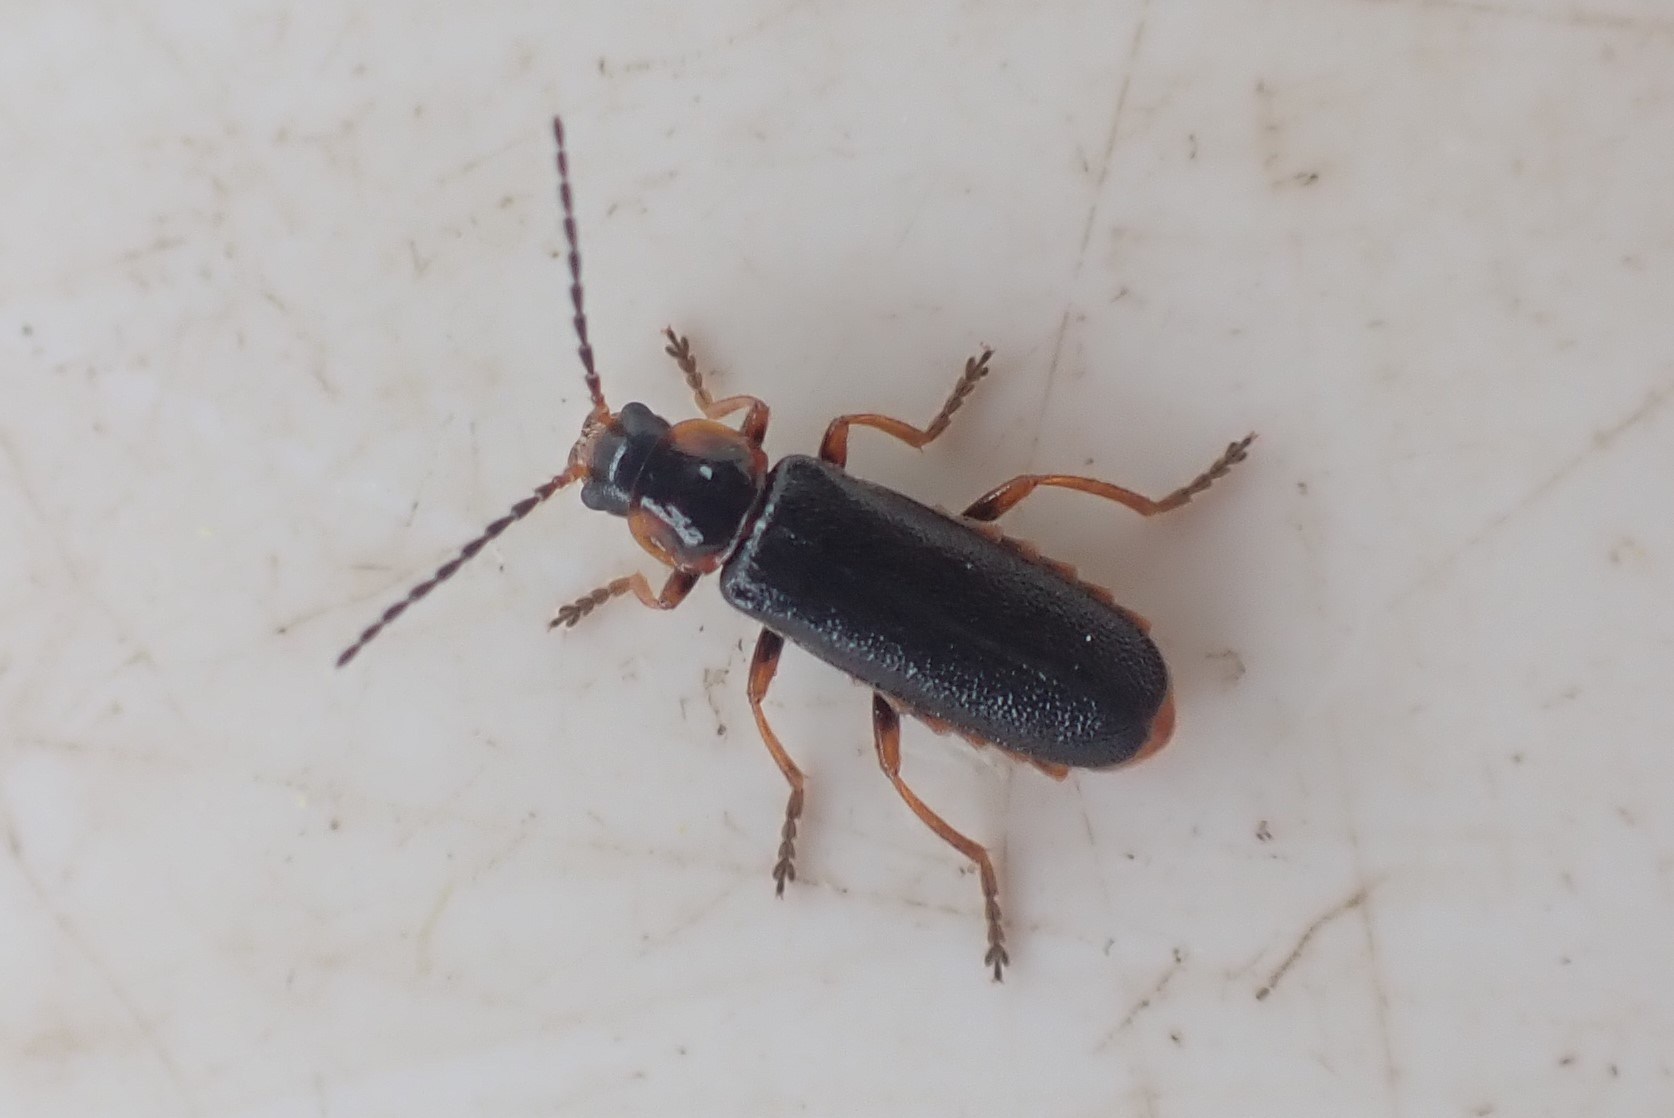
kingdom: Animalia
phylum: Arthropoda
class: Insecta
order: Coleoptera
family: Cantharidae
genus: Cantharis
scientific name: Cantharis flavilabris
